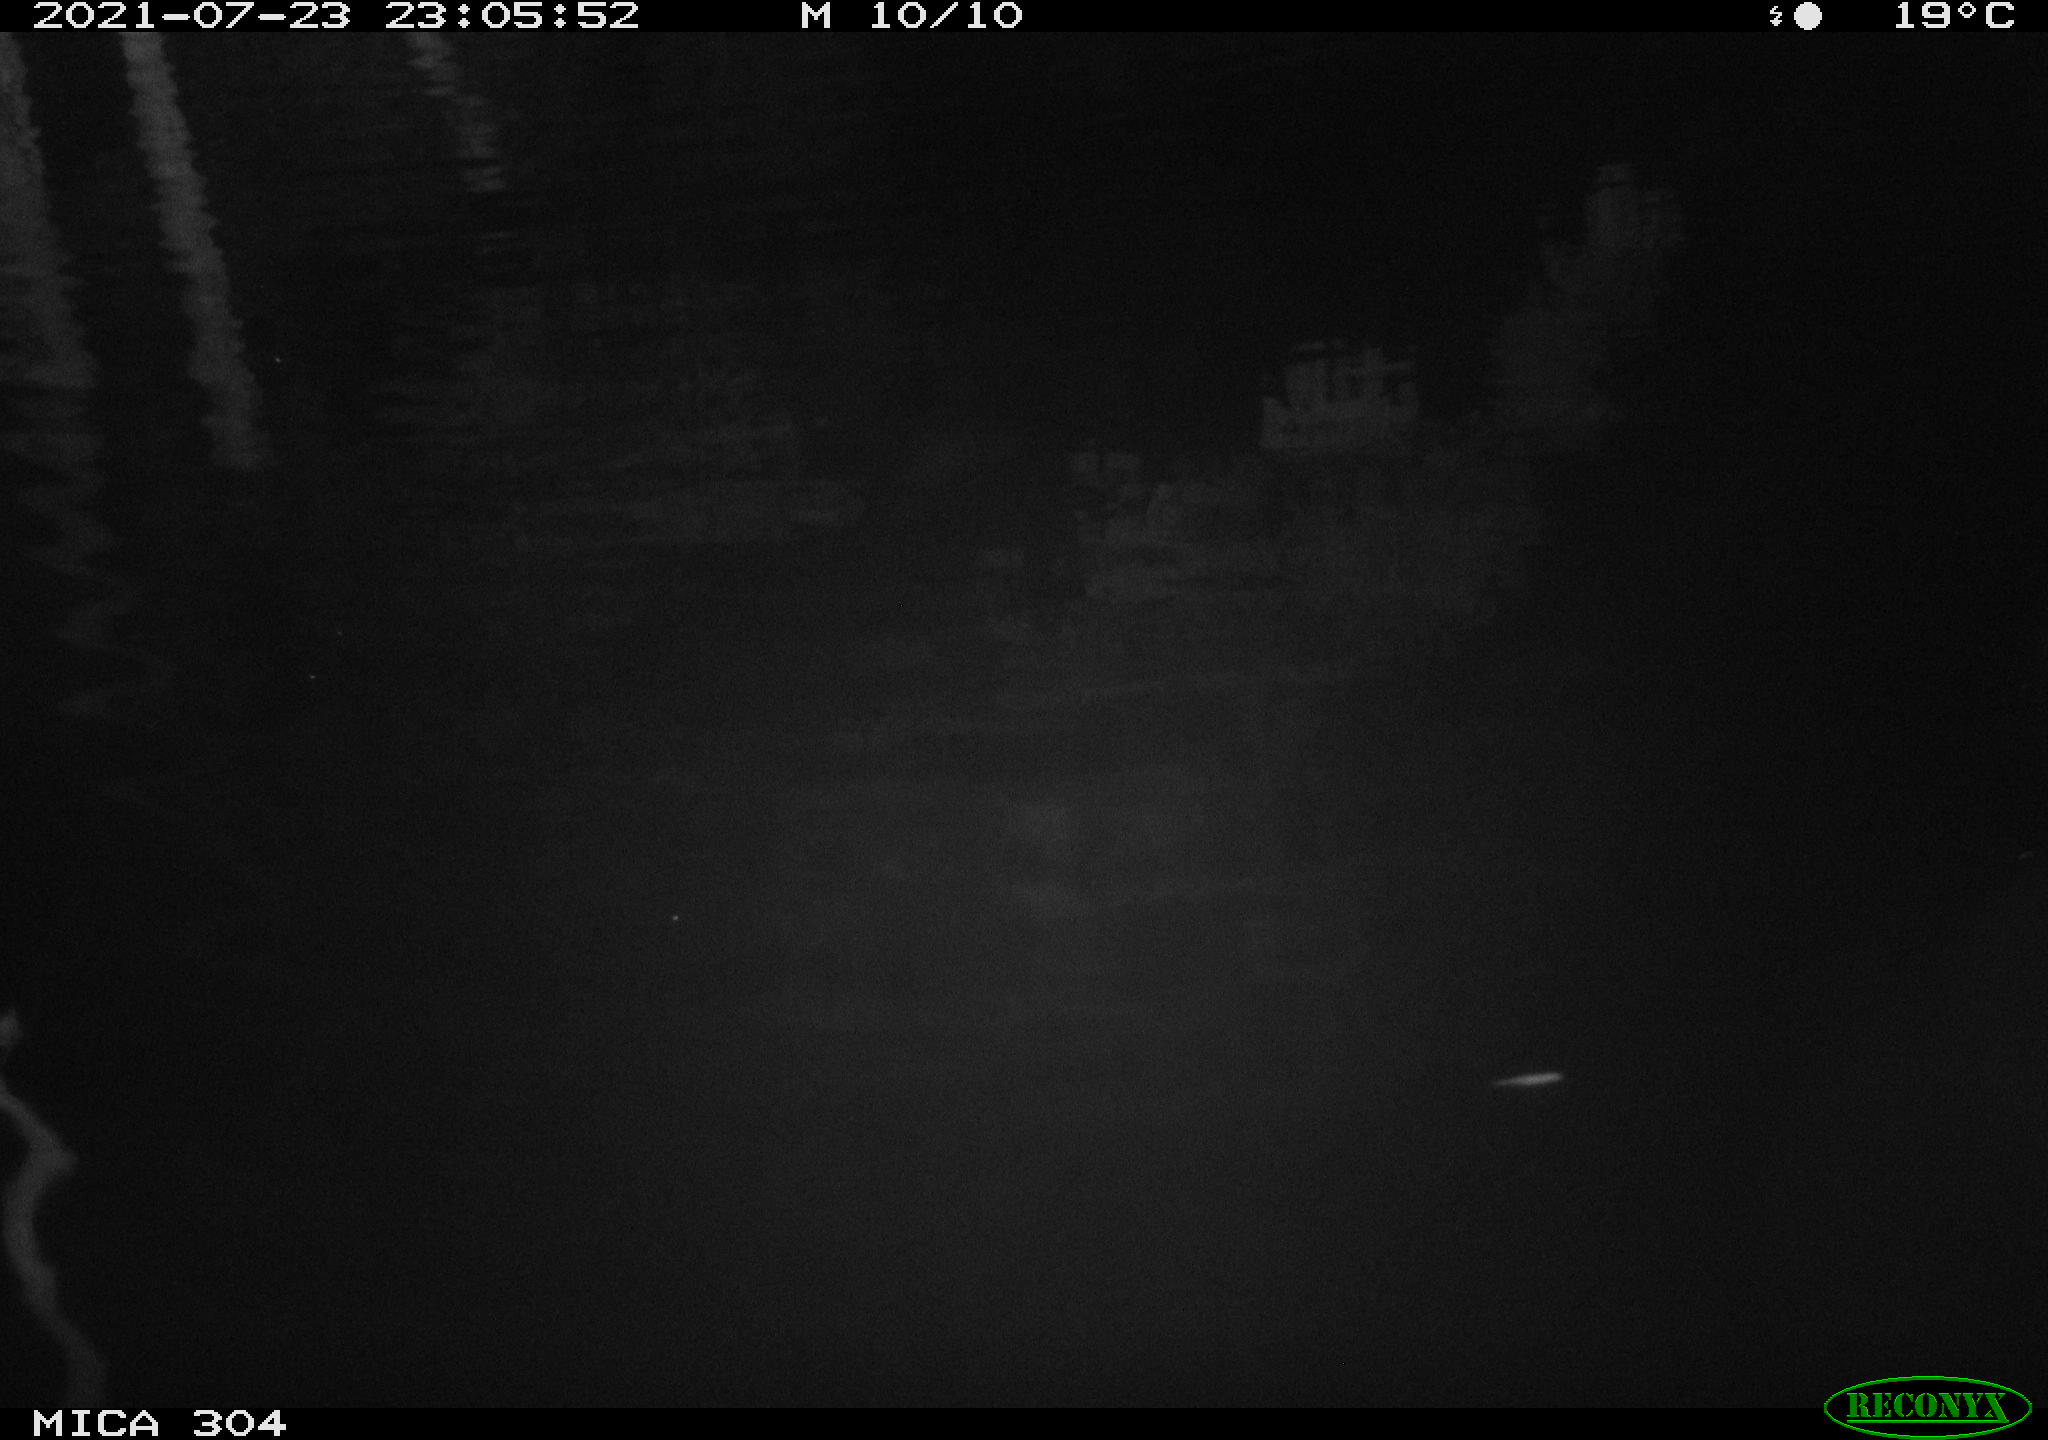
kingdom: Animalia
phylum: Chordata
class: Aves
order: Anseriformes
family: Anatidae
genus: Anas
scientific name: Anas platyrhynchos
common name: Mallard
